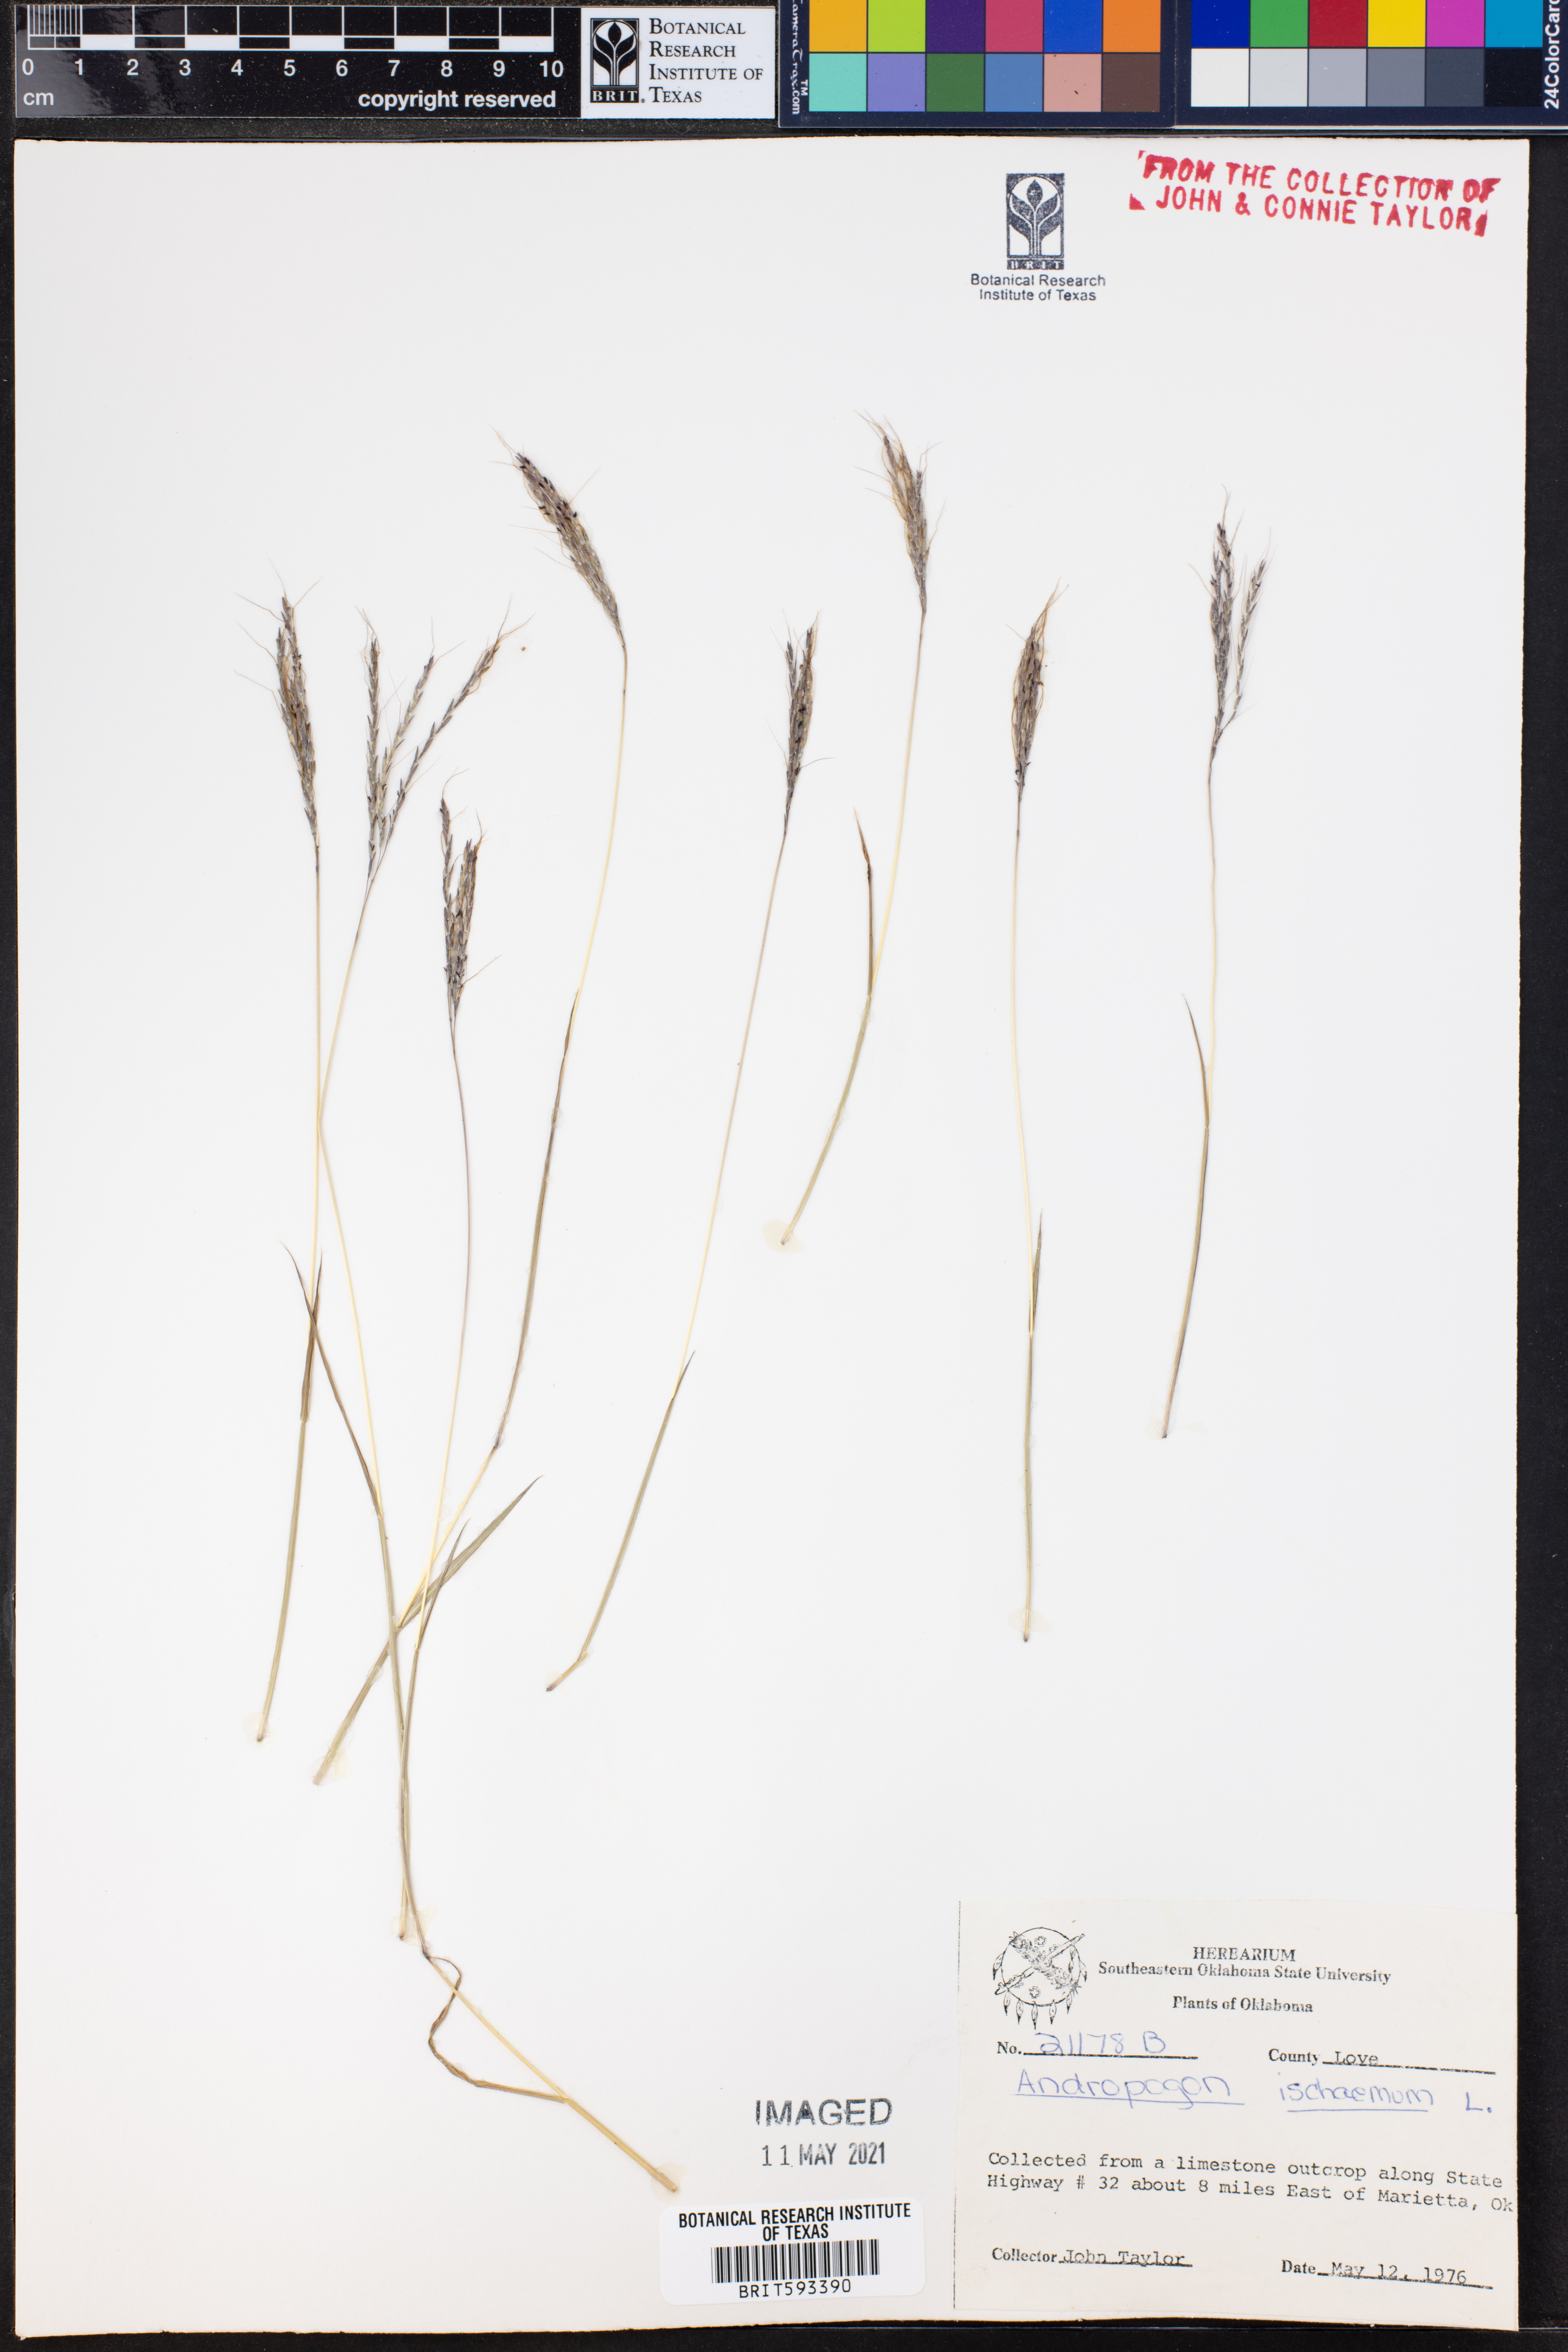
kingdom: Plantae
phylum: Tracheophyta
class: Liliopsida
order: Poales
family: Poaceae
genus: Andropogon
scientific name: Andropogon ischaemum
